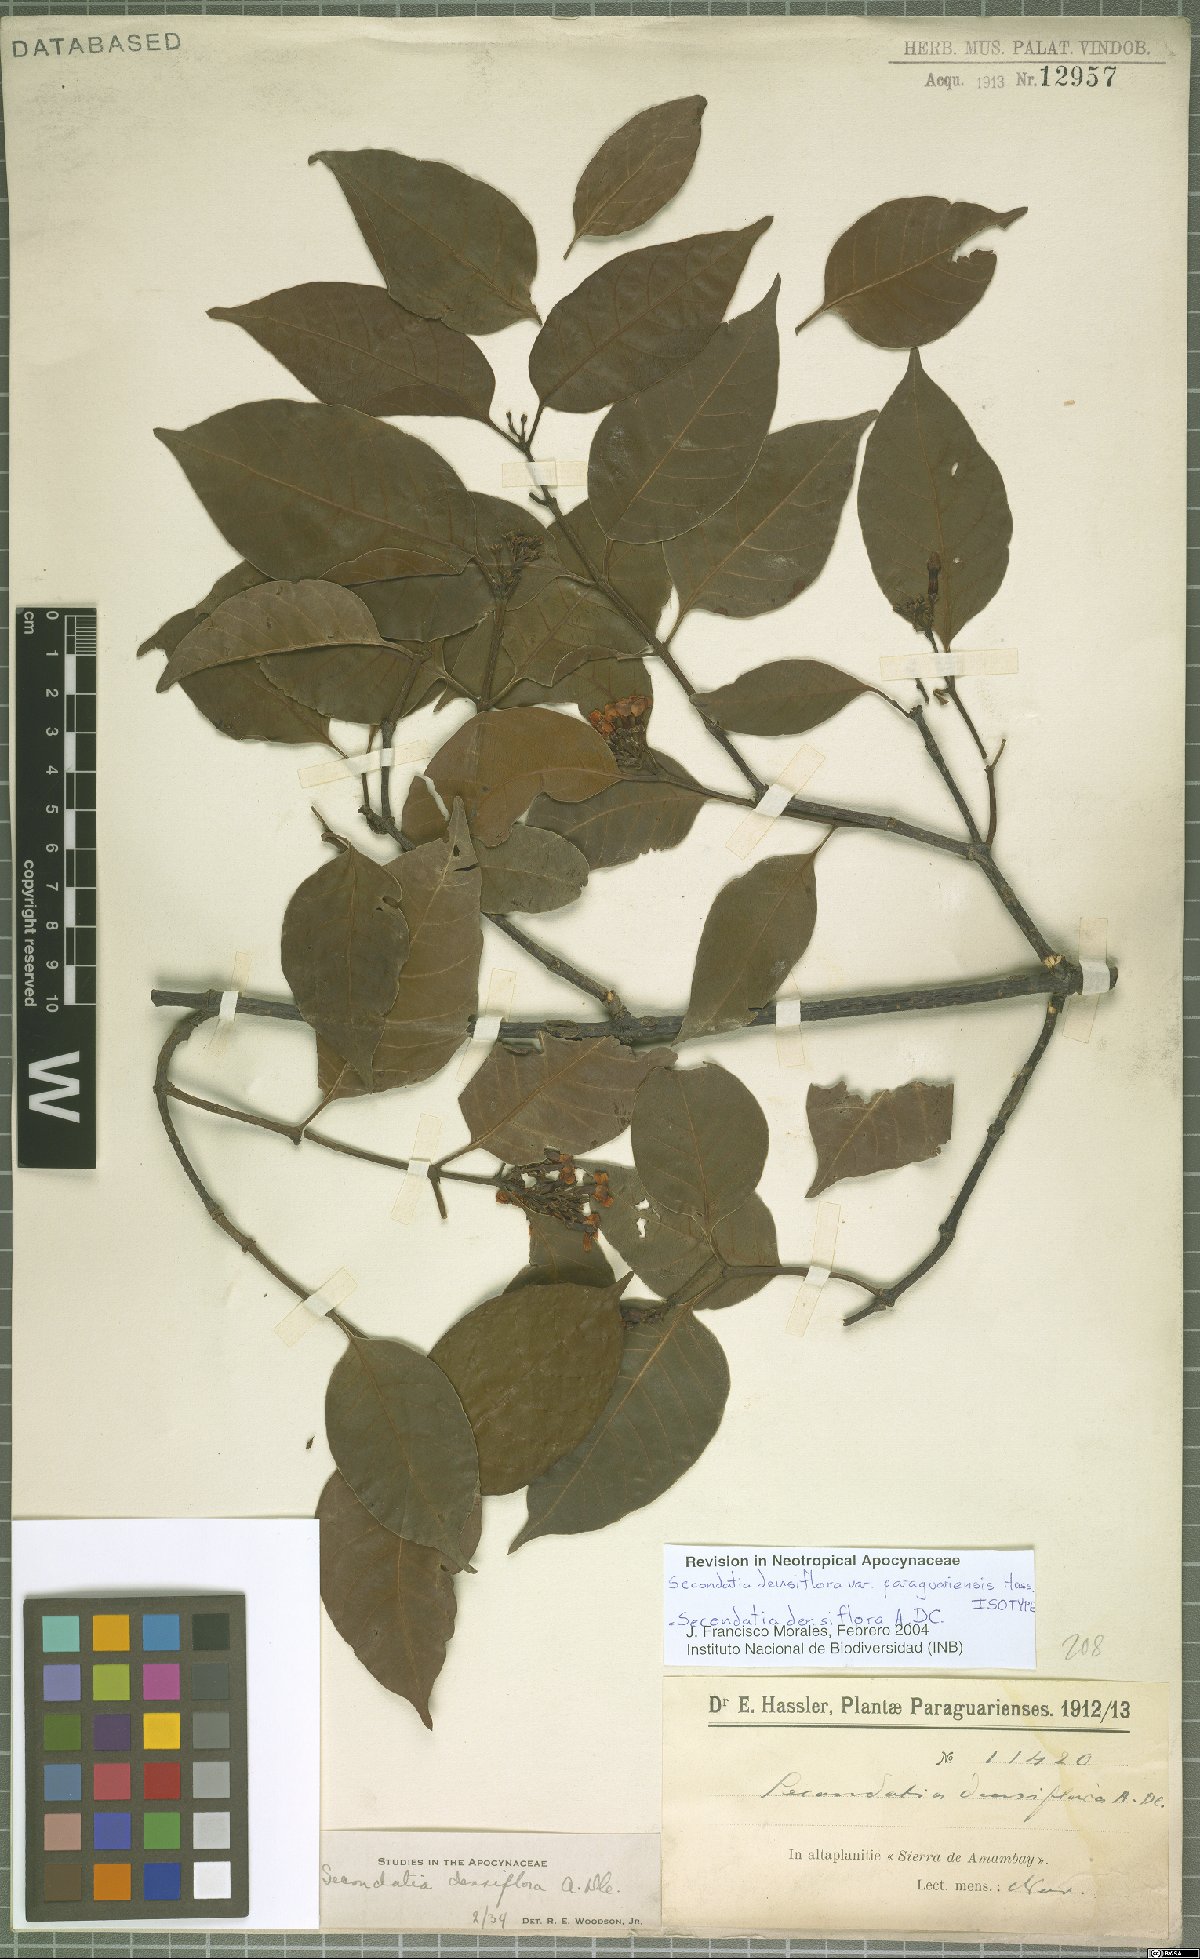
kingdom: Plantae
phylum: Tracheophyta
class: Magnoliopsida
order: Gentianales
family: Apocynaceae
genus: Secondatia
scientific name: Secondatia densiflora
